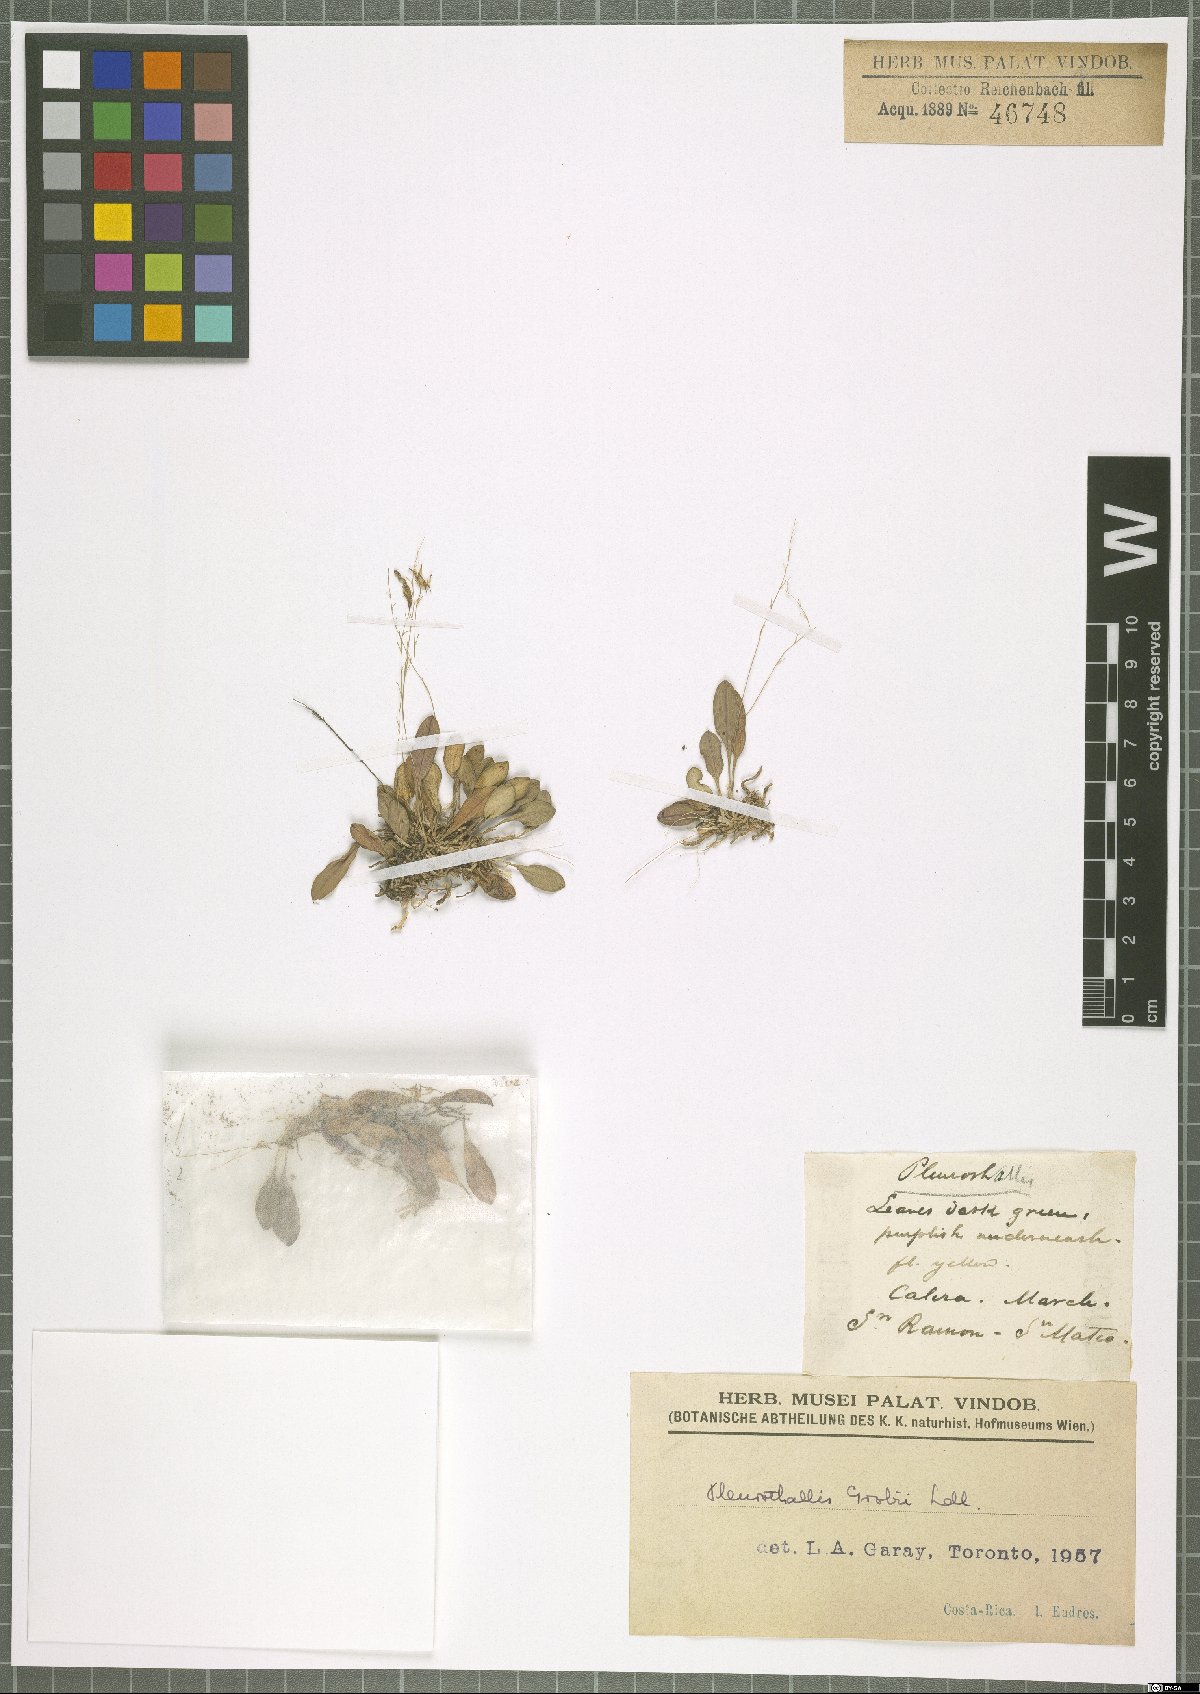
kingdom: Plantae
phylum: Tracheophyta
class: Liliopsida
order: Asparagales
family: Orchidaceae
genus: Specklinia
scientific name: Specklinia grobyi
